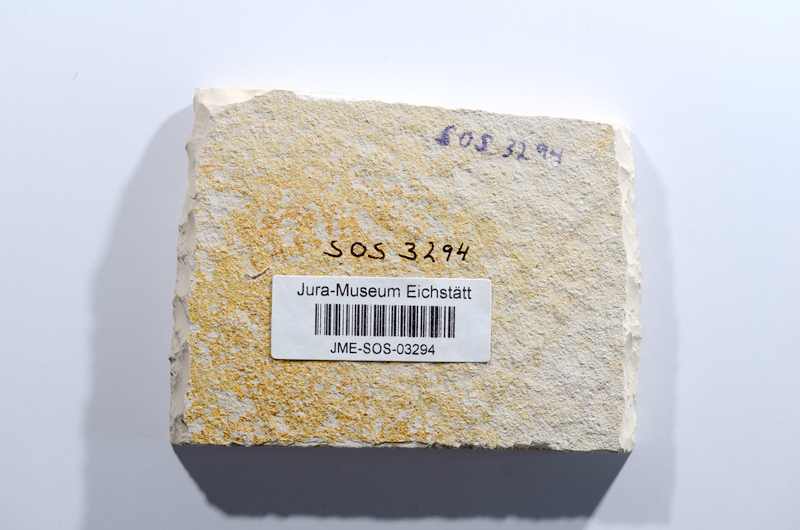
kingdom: Animalia
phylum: Chordata
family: Ascalaboidae
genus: Tharsis
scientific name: Tharsis dubius
